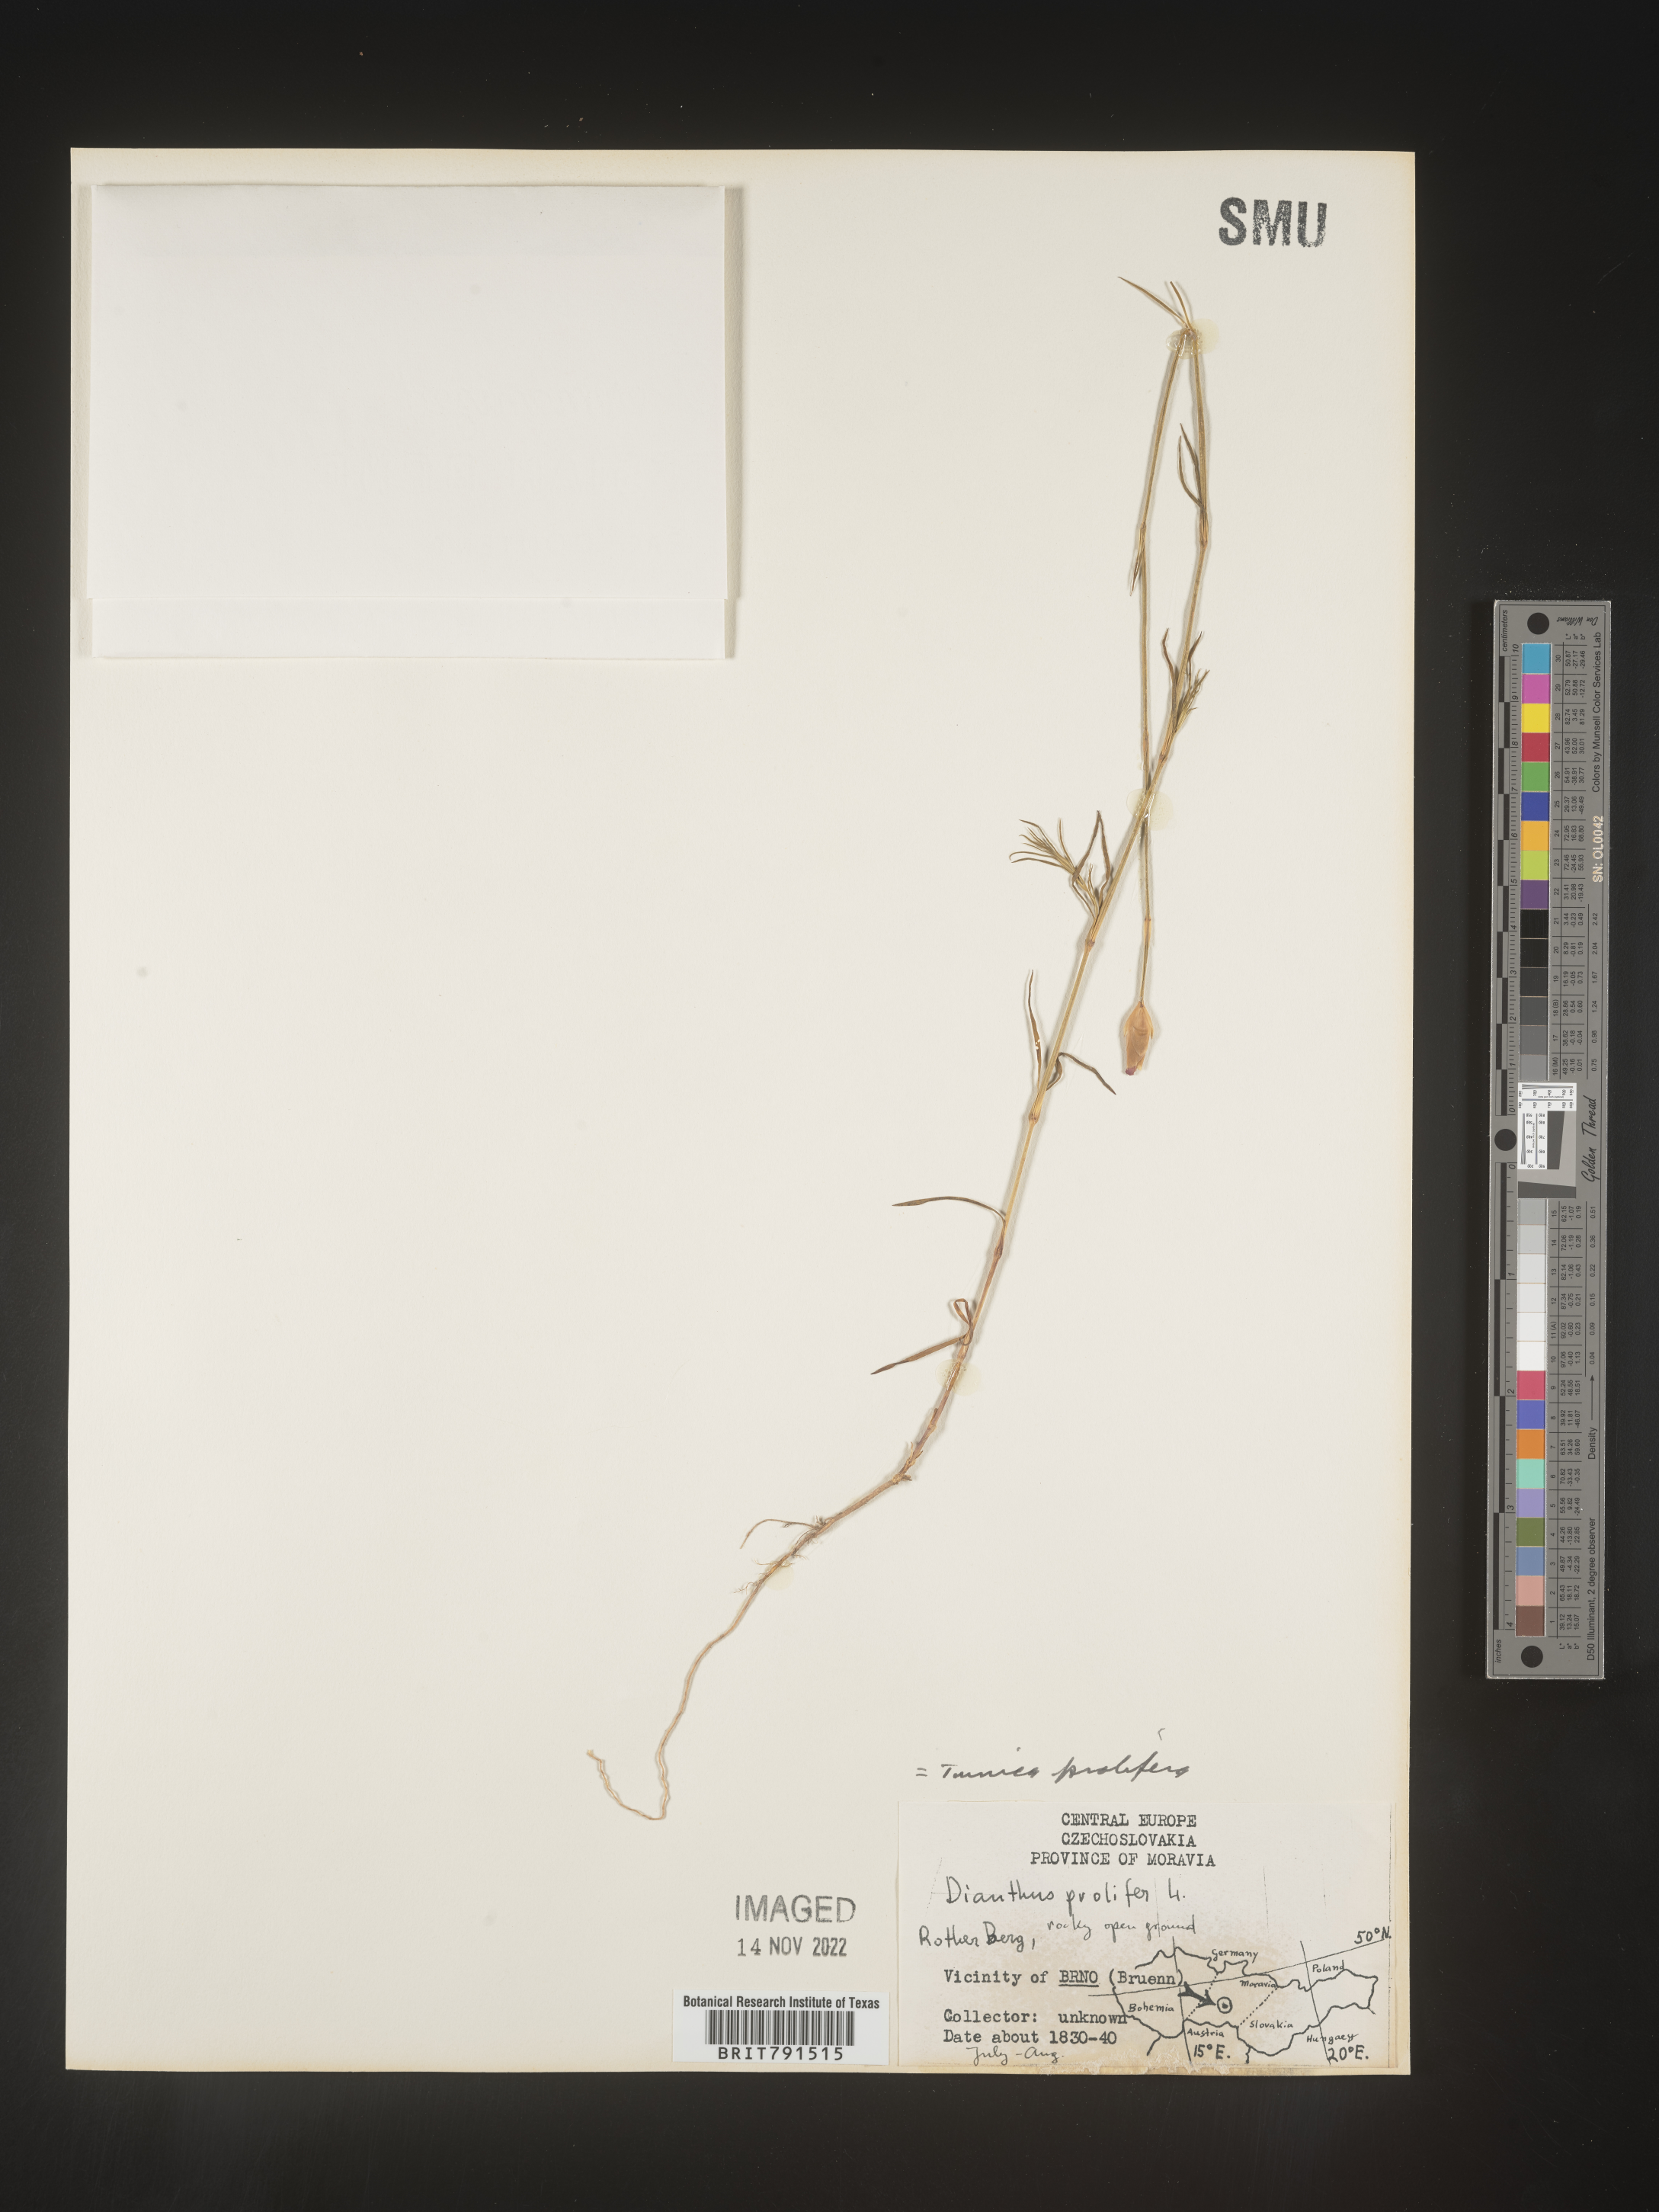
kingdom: Plantae
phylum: Tracheophyta
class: Magnoliopsida
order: Caryophyllales
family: Caryophyllaceae
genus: Petrorhagia
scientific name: Petrorhagia
